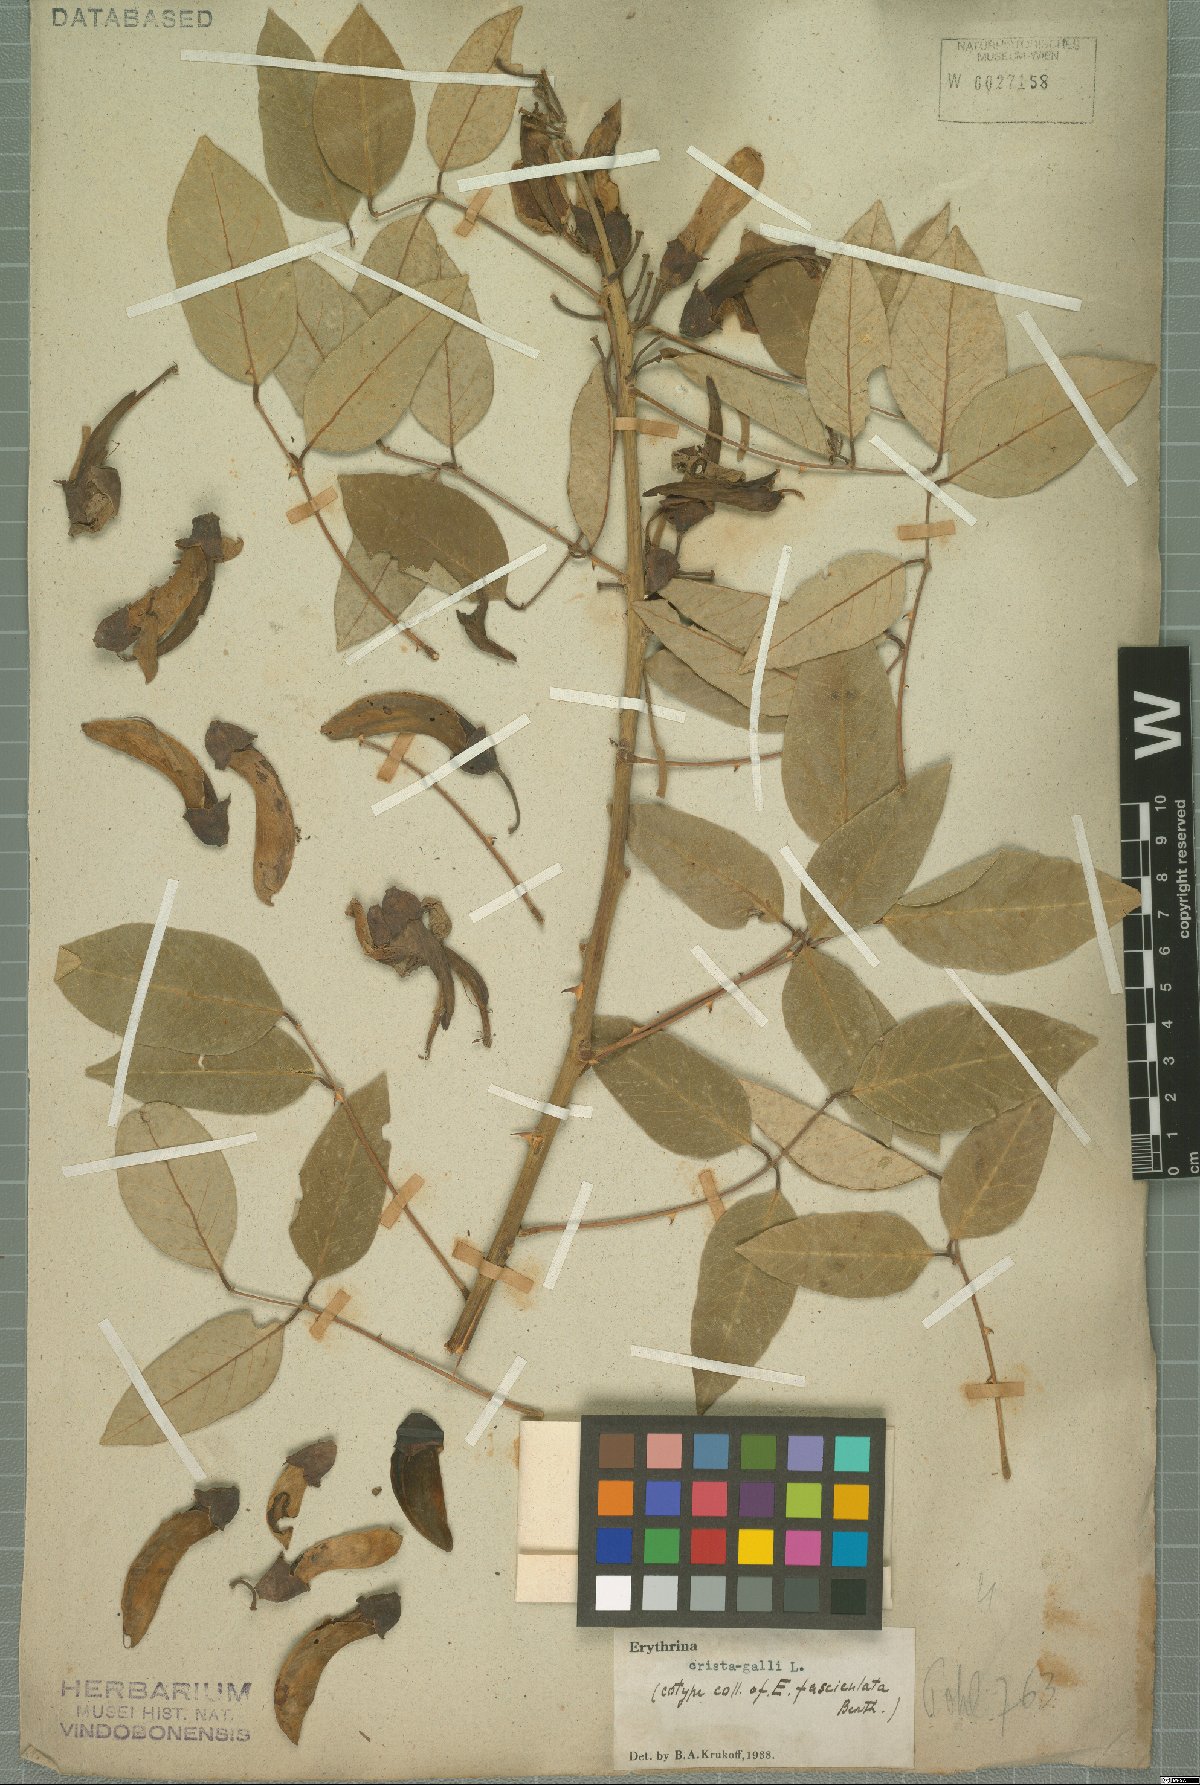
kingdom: Plantae
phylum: Tracheophyta
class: Magnoliopsida
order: Fabales
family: Fabaceae
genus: Erythrina
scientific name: Erythrina crista-galli
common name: Cockspur coral tree
